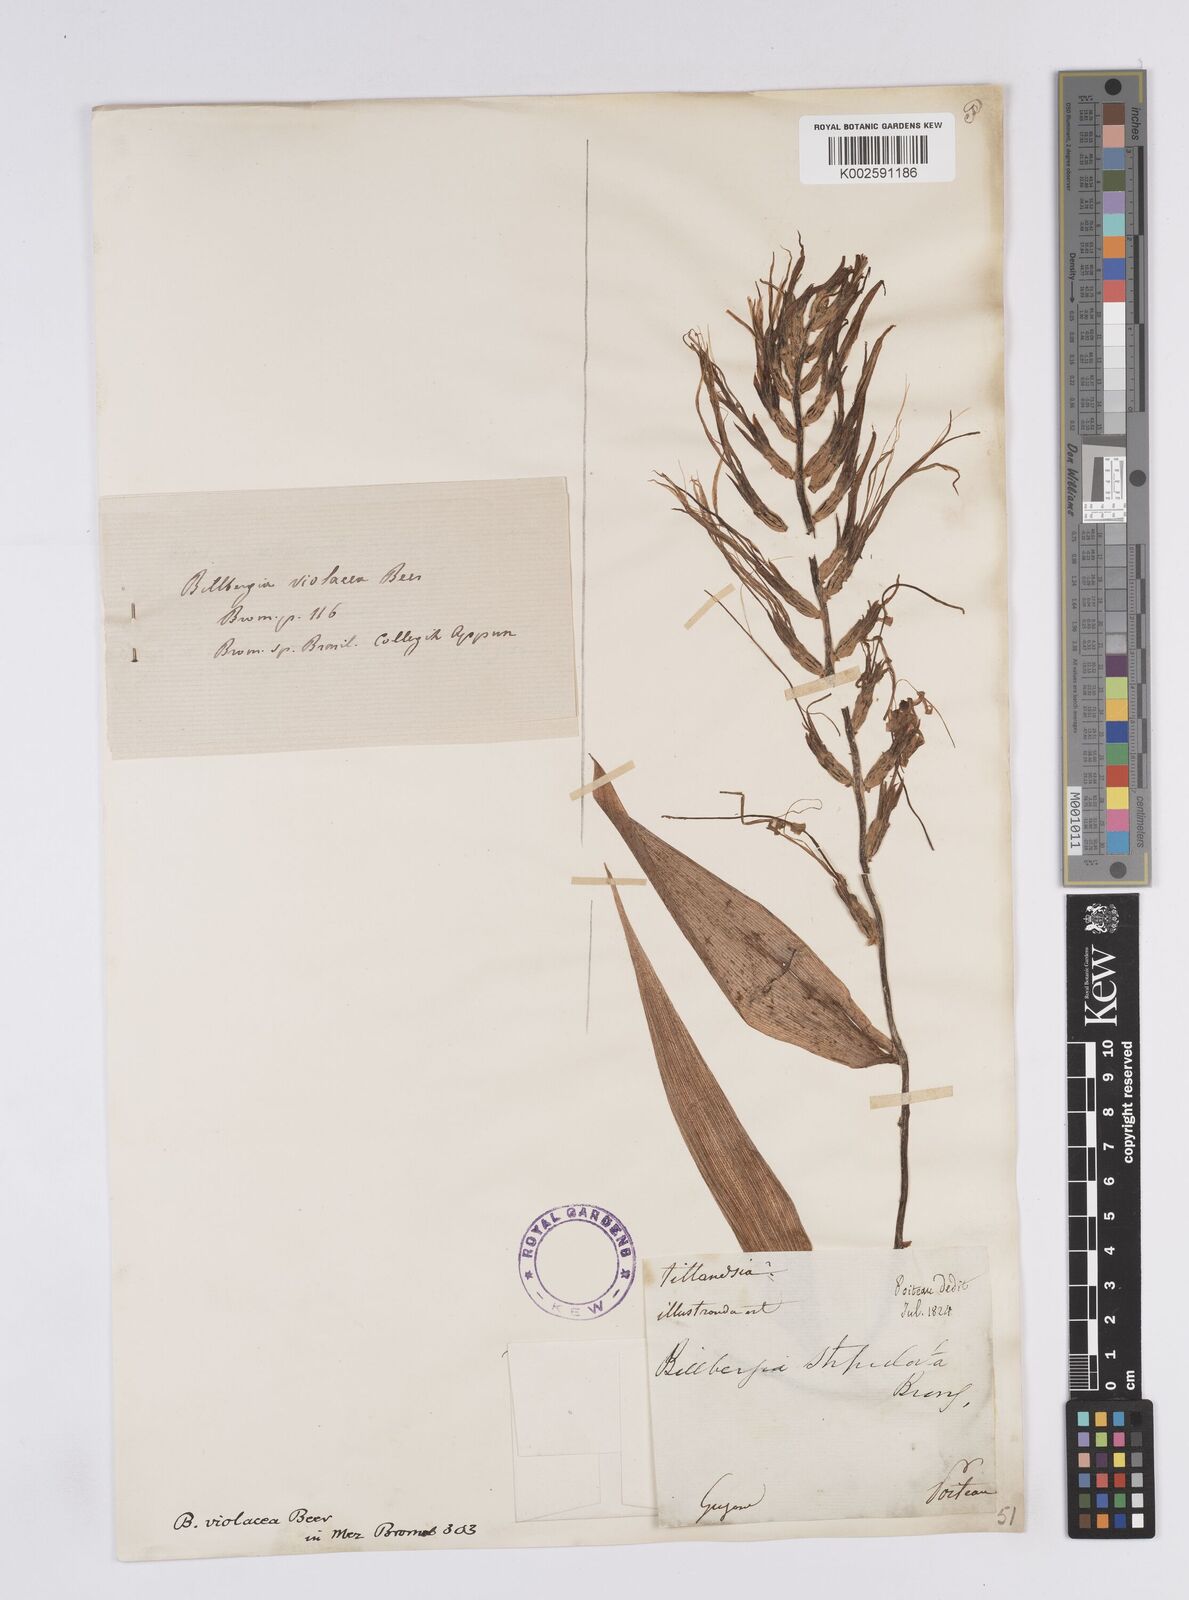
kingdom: Plantae
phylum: Tracheophyta
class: Liliopsida
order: Poales
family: Bromeliaceae
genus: Billbergia
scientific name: Billbergia violacea
